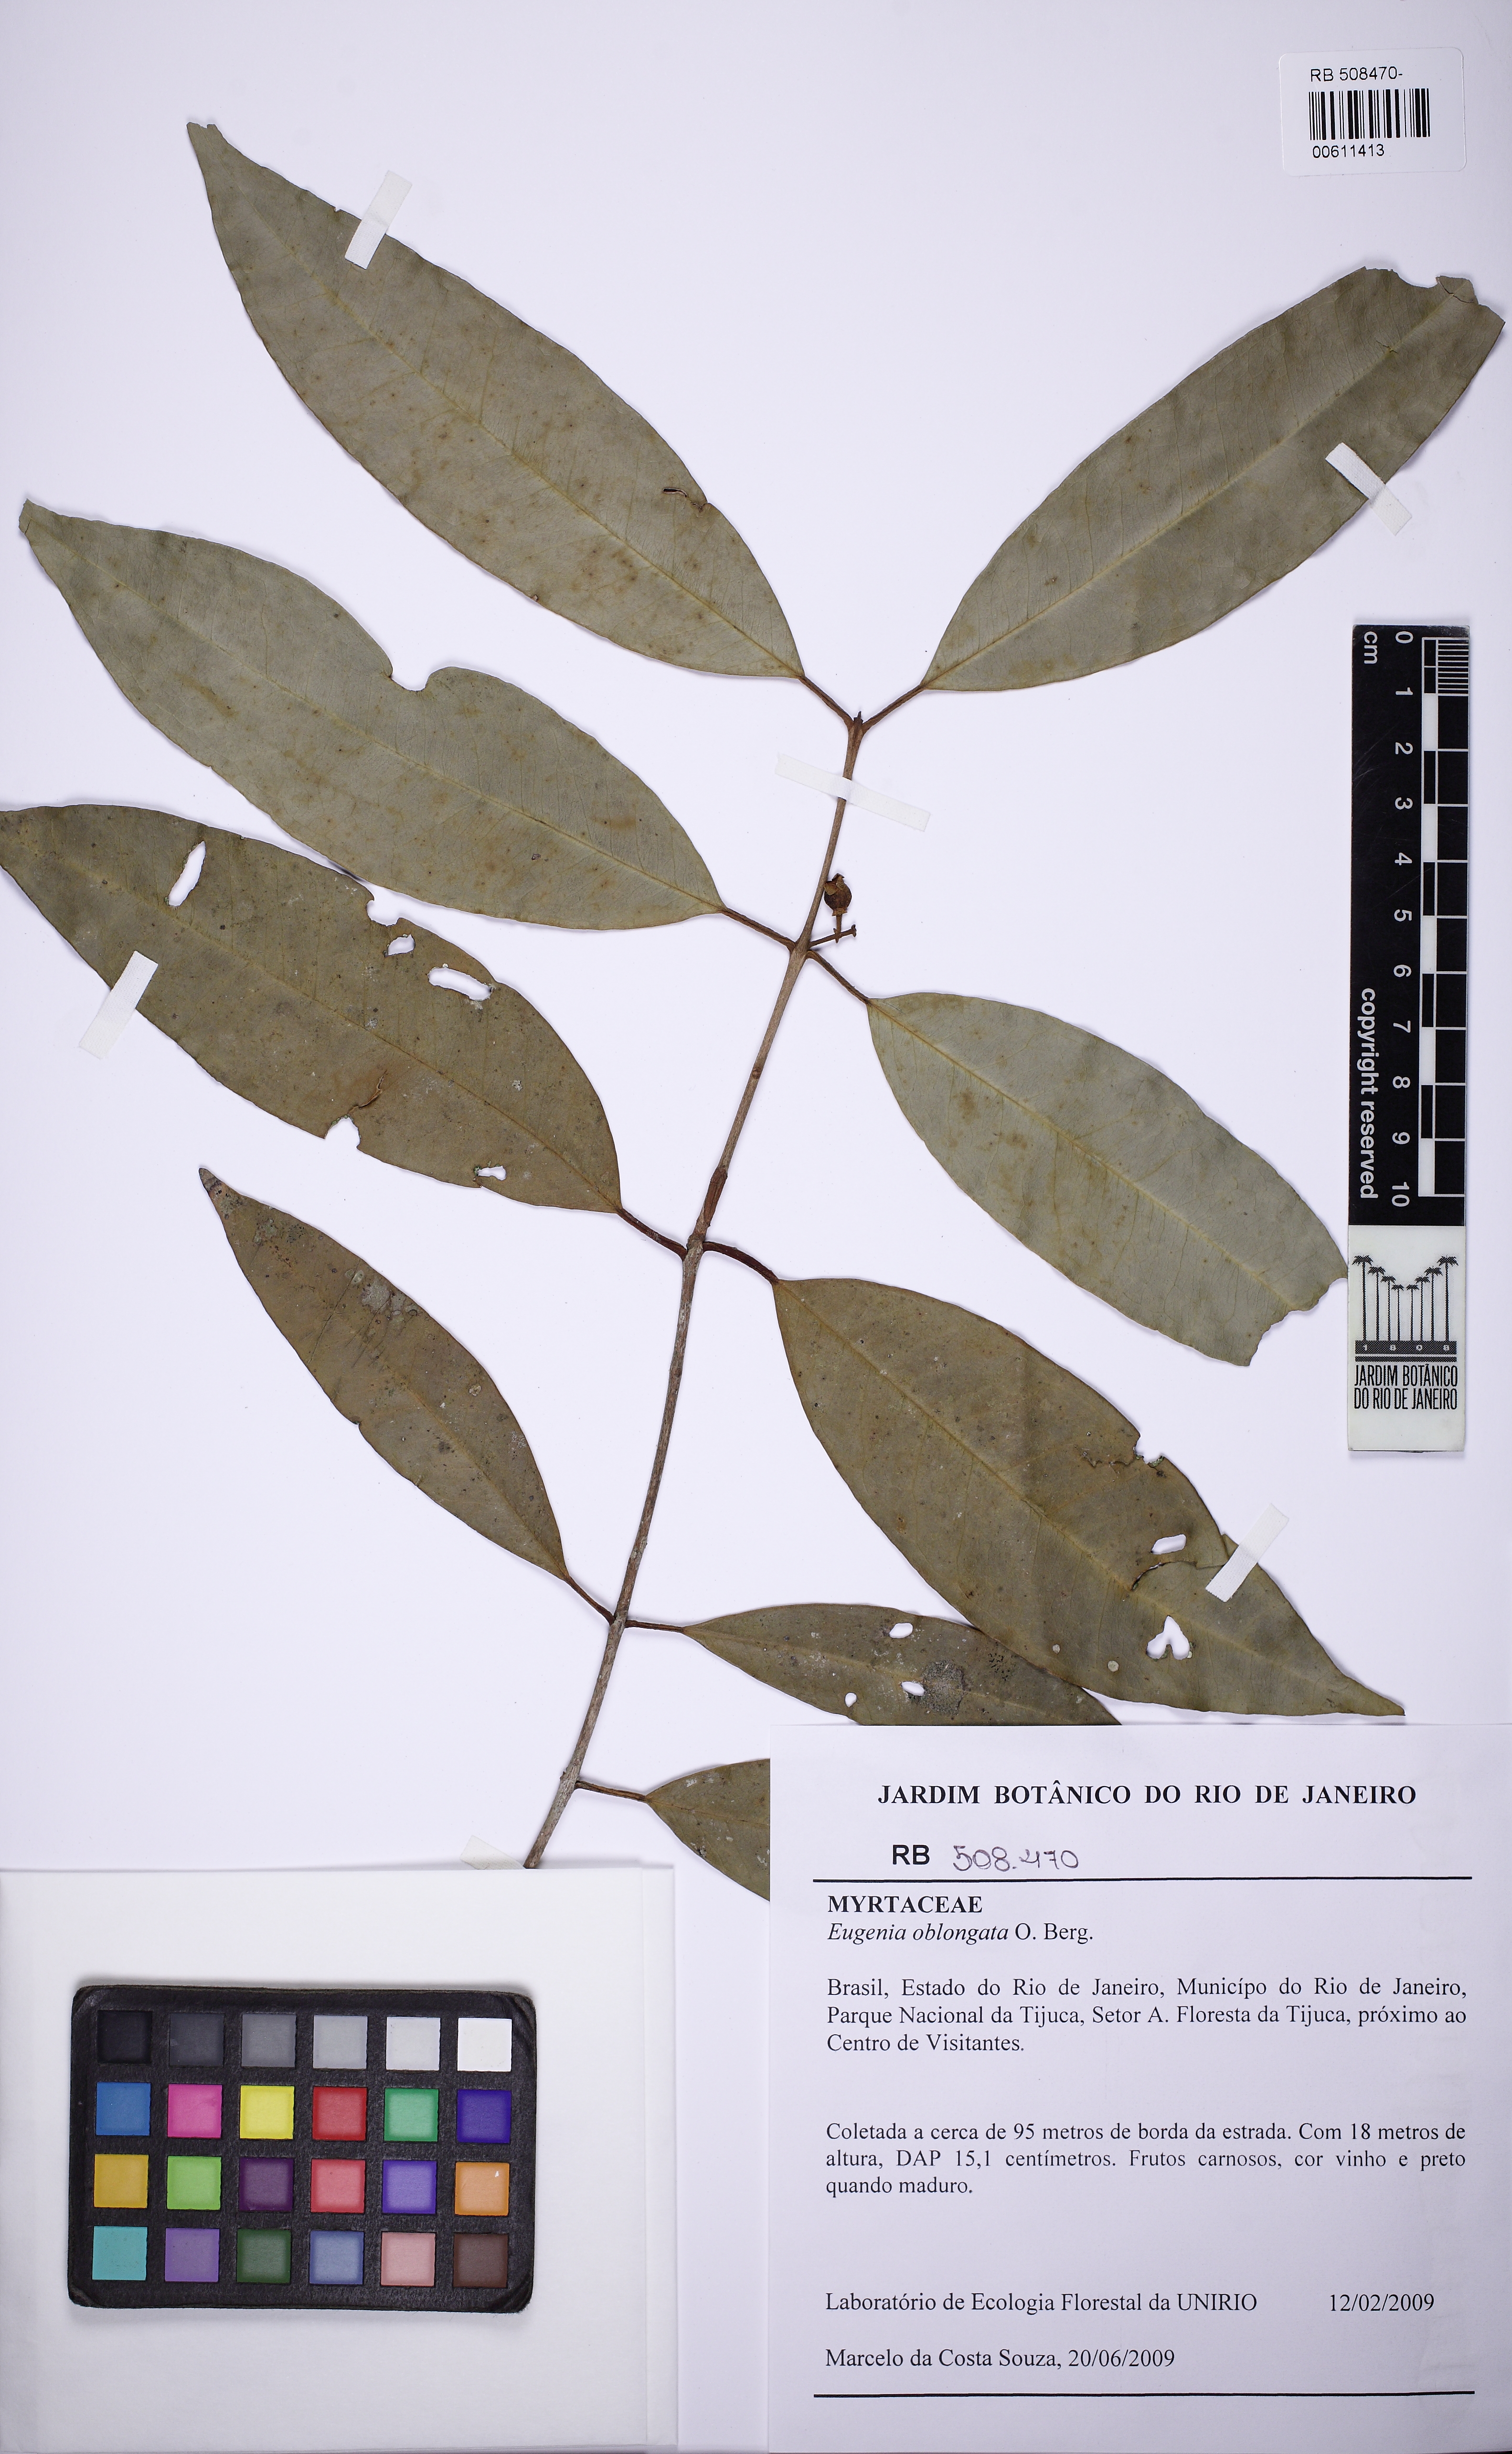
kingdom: Plantae
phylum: Tracheophyta
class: Magnoliopsida
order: Myrtales
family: Myrtaceae
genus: Eugenia
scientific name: Eugenia oblongata
